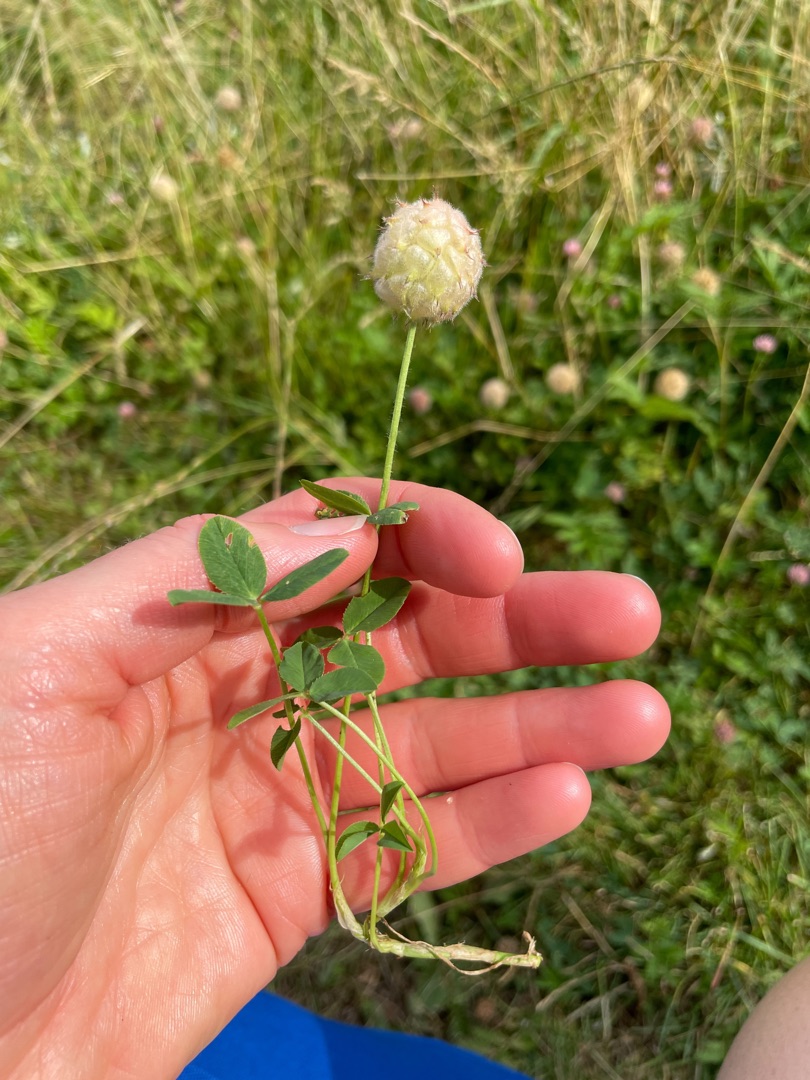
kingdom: Plantae
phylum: Tracheophyta
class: Magnoliopsida
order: Fabales
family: Fabaceae
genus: Trifolium
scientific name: Trifolium fragiferum
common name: Jordbær-kløver
